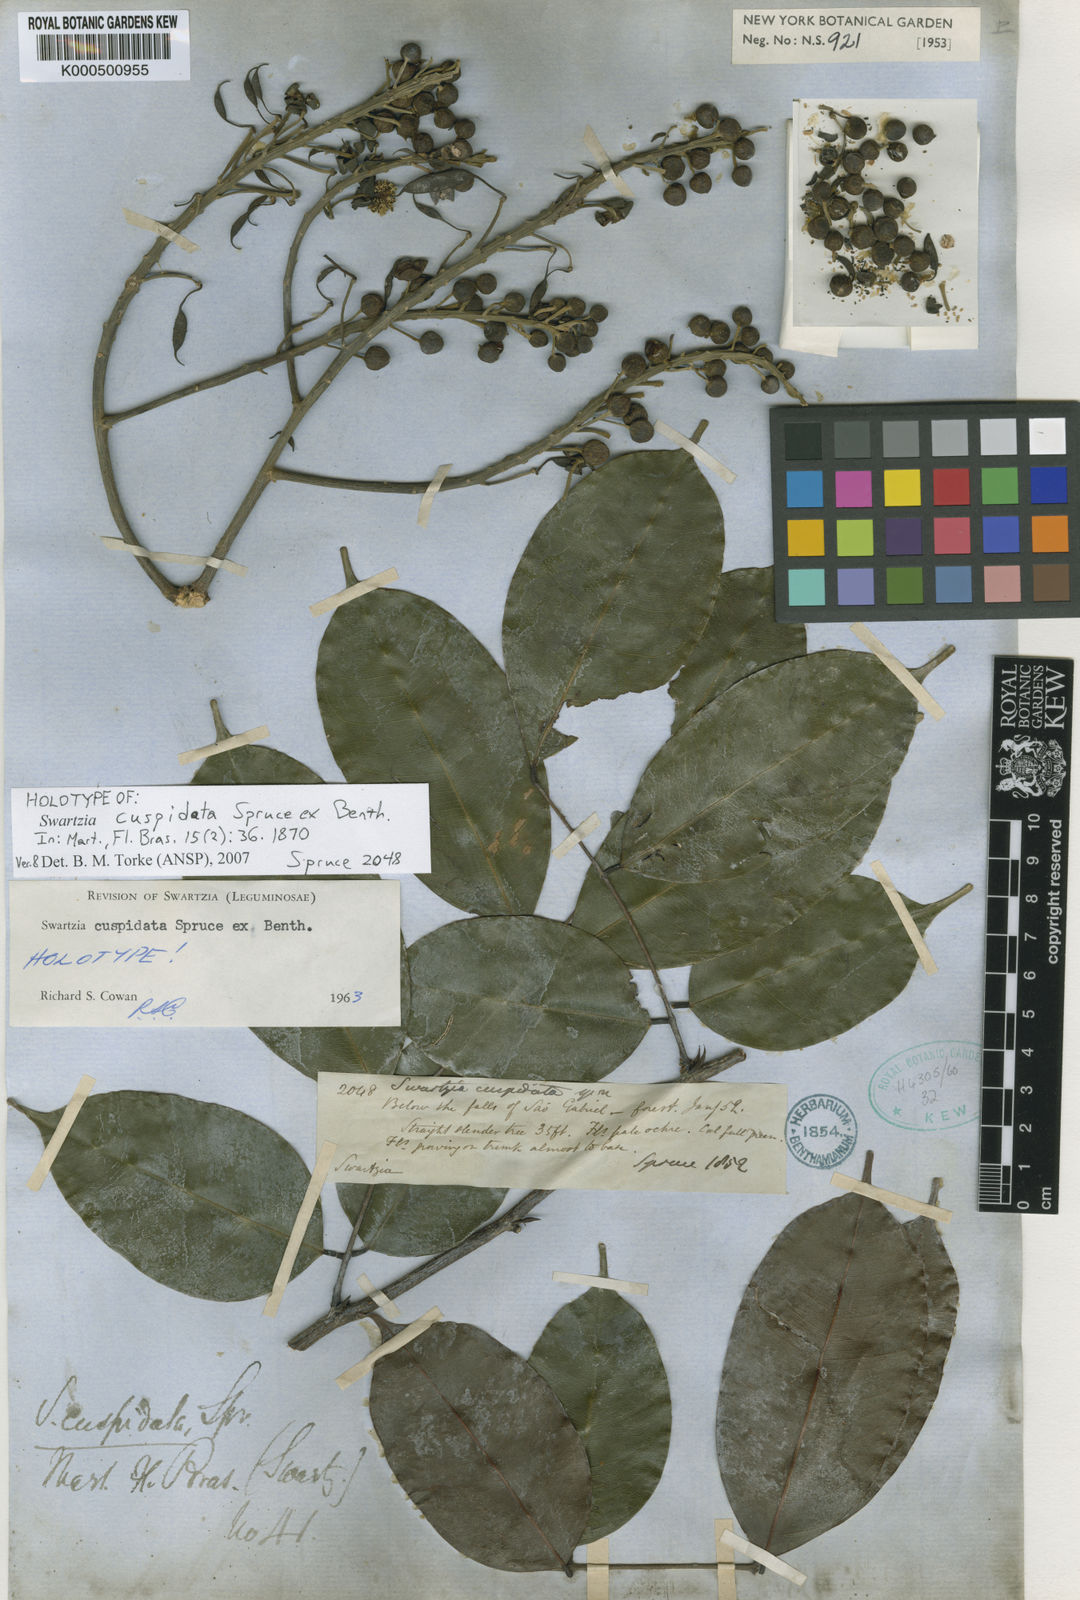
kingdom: Plantae
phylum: Tracheophyta
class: Magnoliopsida
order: Fabales
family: Fabaceae
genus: Swartzia
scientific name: Swartzia cuspidata
